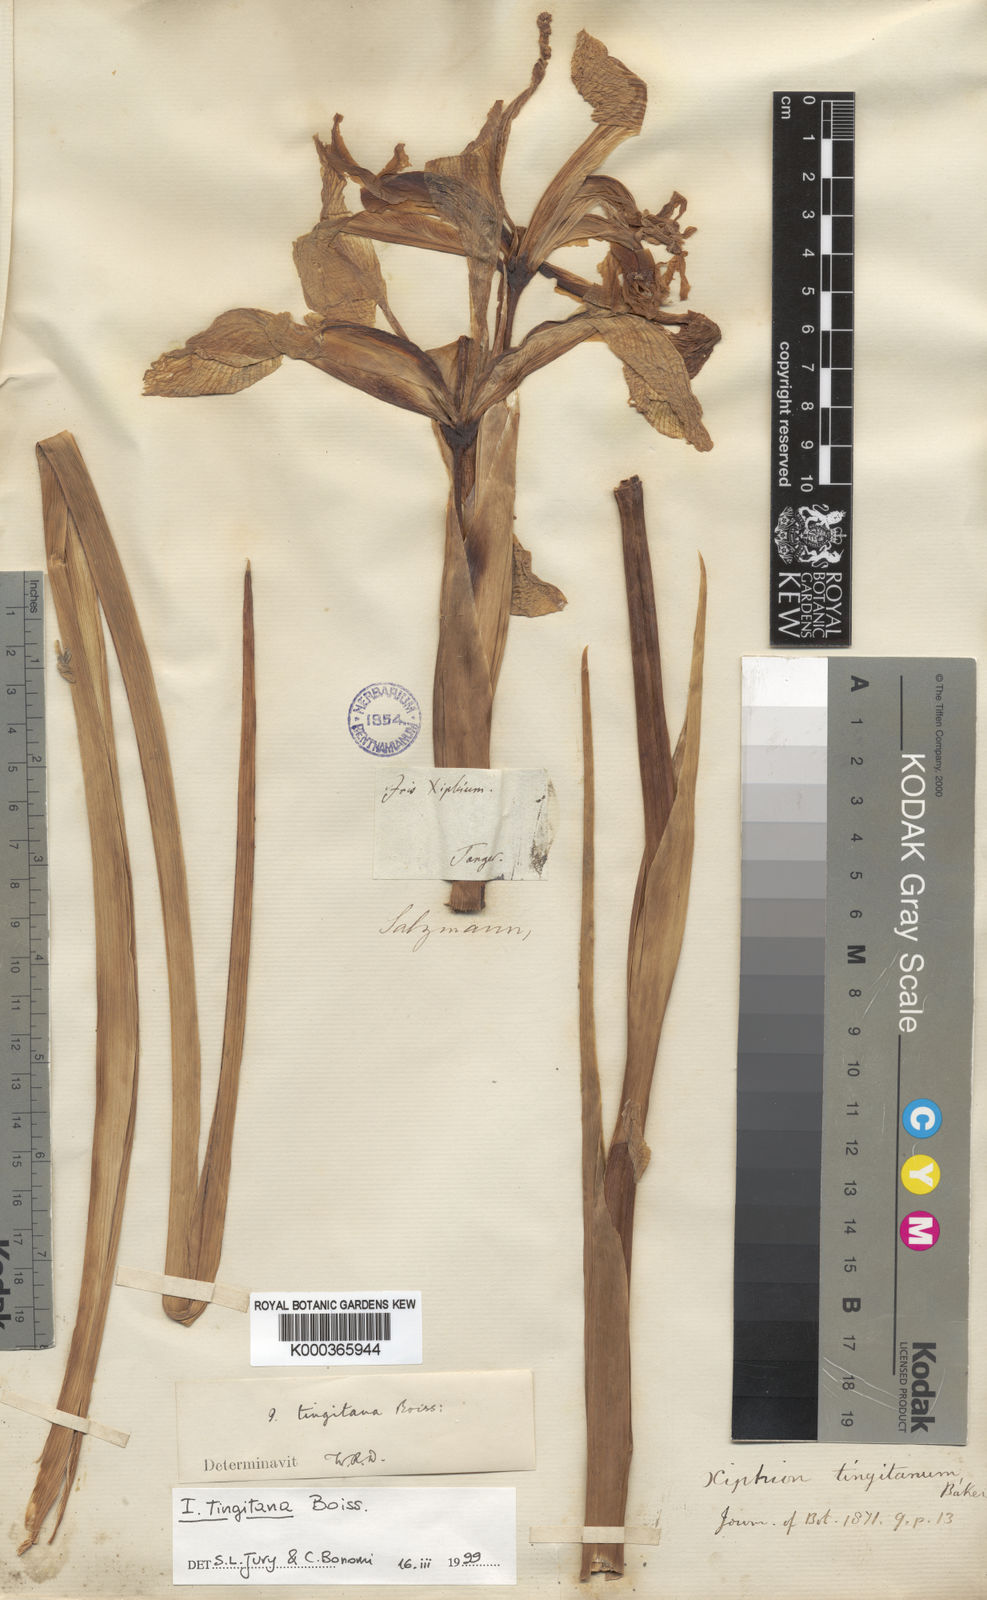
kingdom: Plantae
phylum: Tracheophyta
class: Liliopsida
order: Asparagales
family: Iridaceae
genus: Iris
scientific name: Iris tingitana
